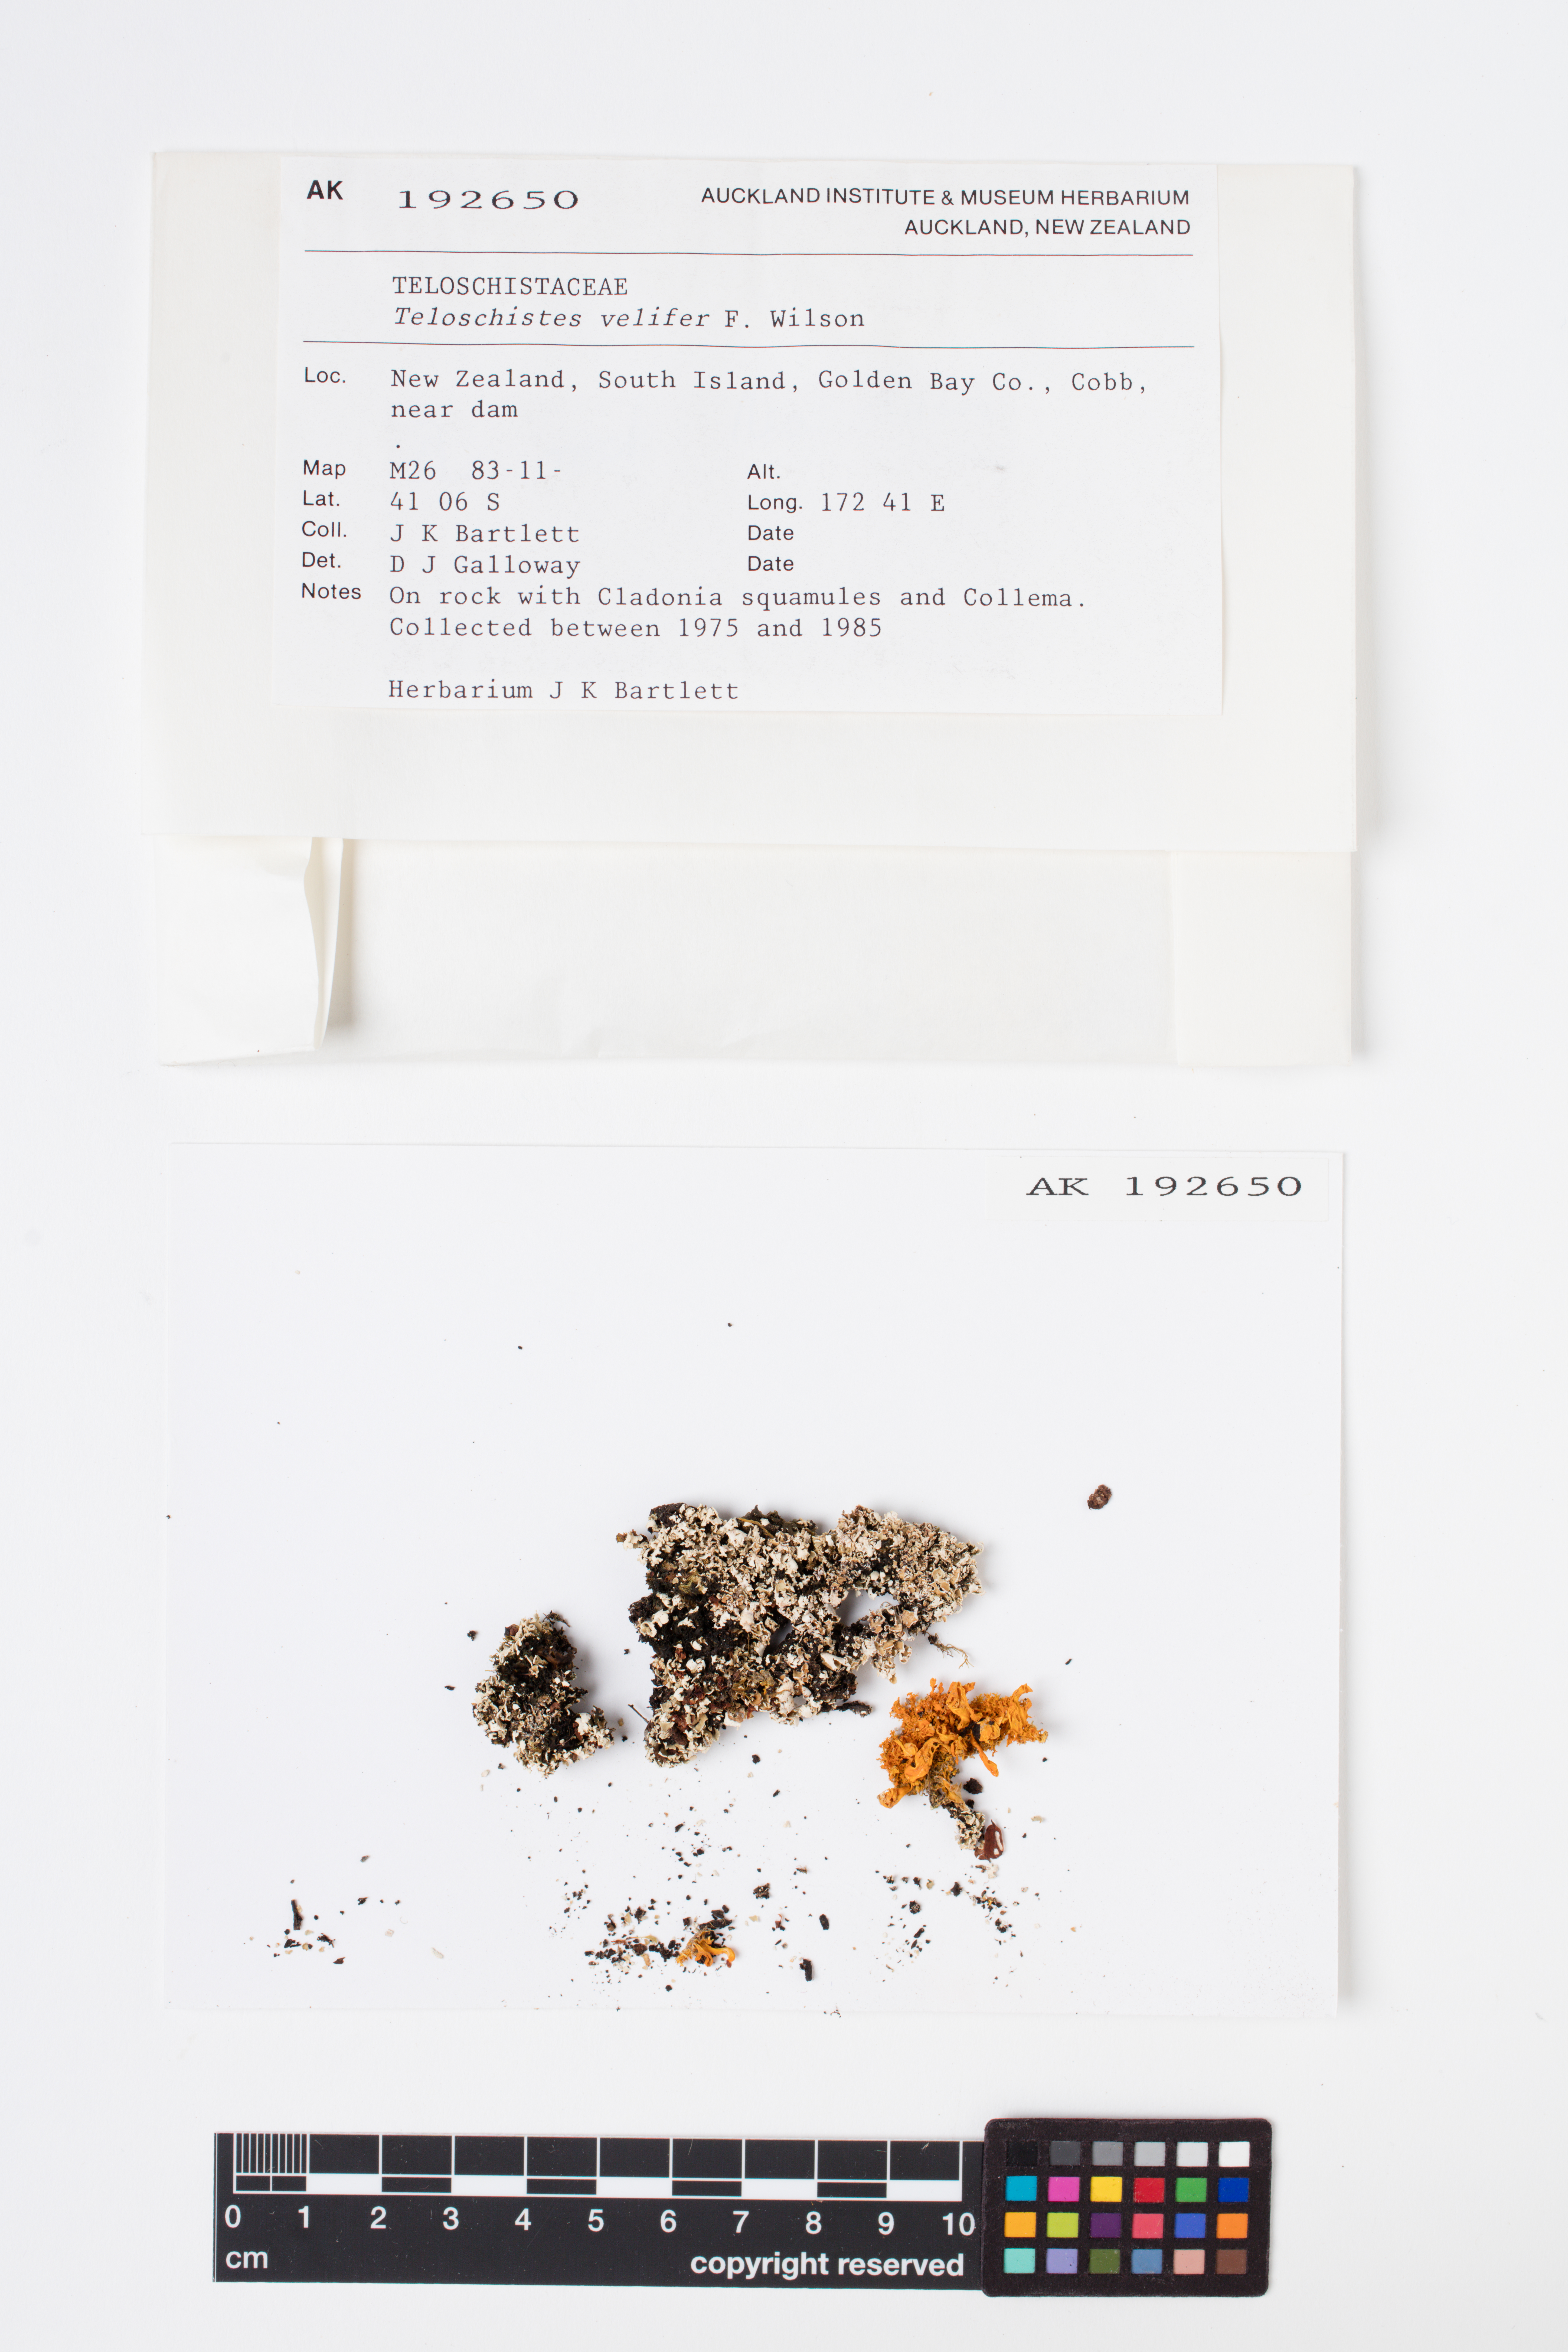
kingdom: Fungi
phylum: Ascomycota
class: Lecanoromycetes
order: Teloschistales
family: Teloschistaceae
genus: Teloschistes
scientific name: Teloschistes velifer
